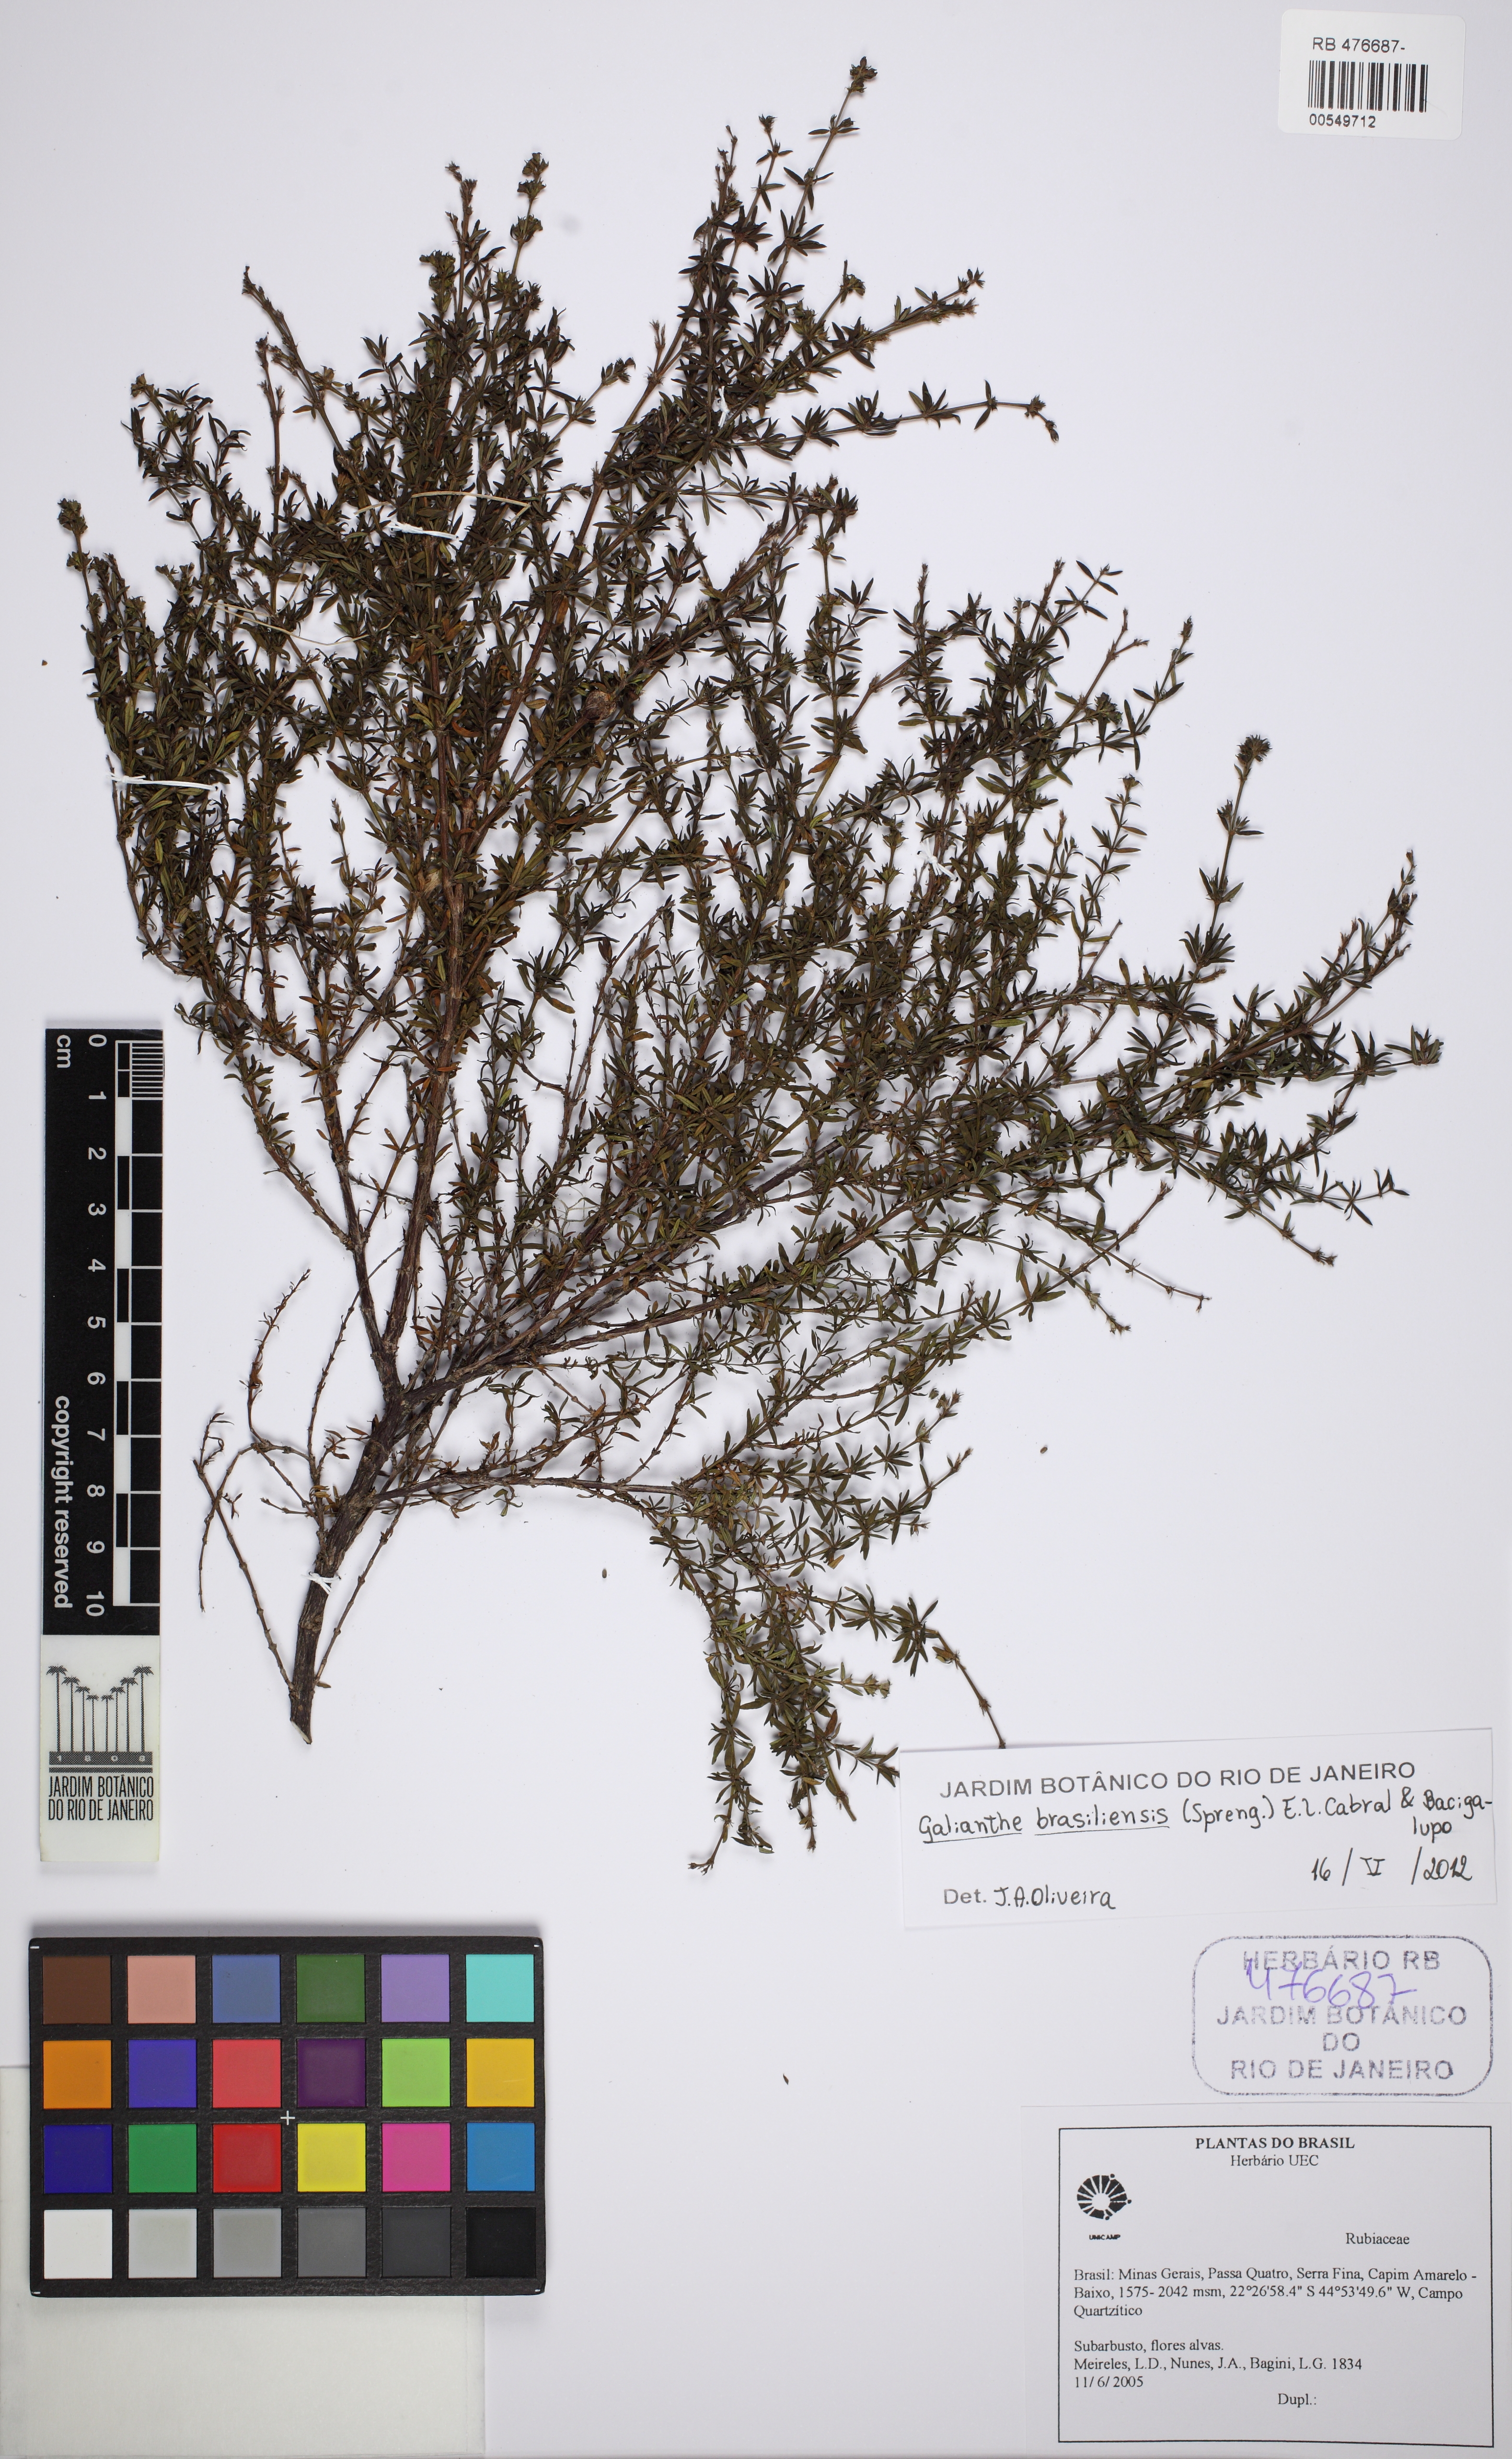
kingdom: Plantae
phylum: Tracheophyta
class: Magnoliopsida
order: Gentianales
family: Rubiaceae
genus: Galianthe
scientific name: Galianthe brasiliensis
